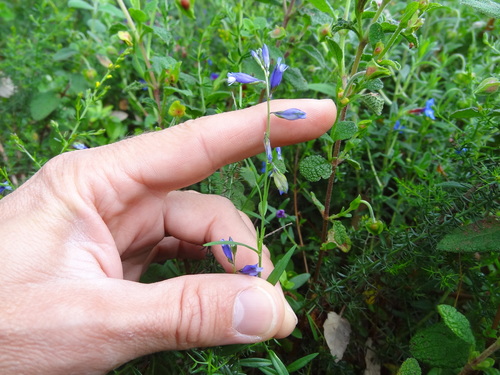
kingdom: Plantae
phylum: Tracheophyta
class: Magnoliopsida
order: Fabales
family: Polygalaceae
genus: Polygala
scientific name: Polygala vulgaris
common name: Common milkwort
